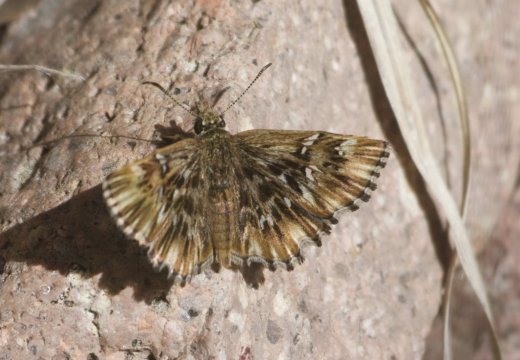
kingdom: Animalia
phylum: Arthropoda
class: Insecta
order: Lepidoptera
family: Hesperiidae
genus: Celotes
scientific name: Celotes nessus
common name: Common Streaky-Skipper
